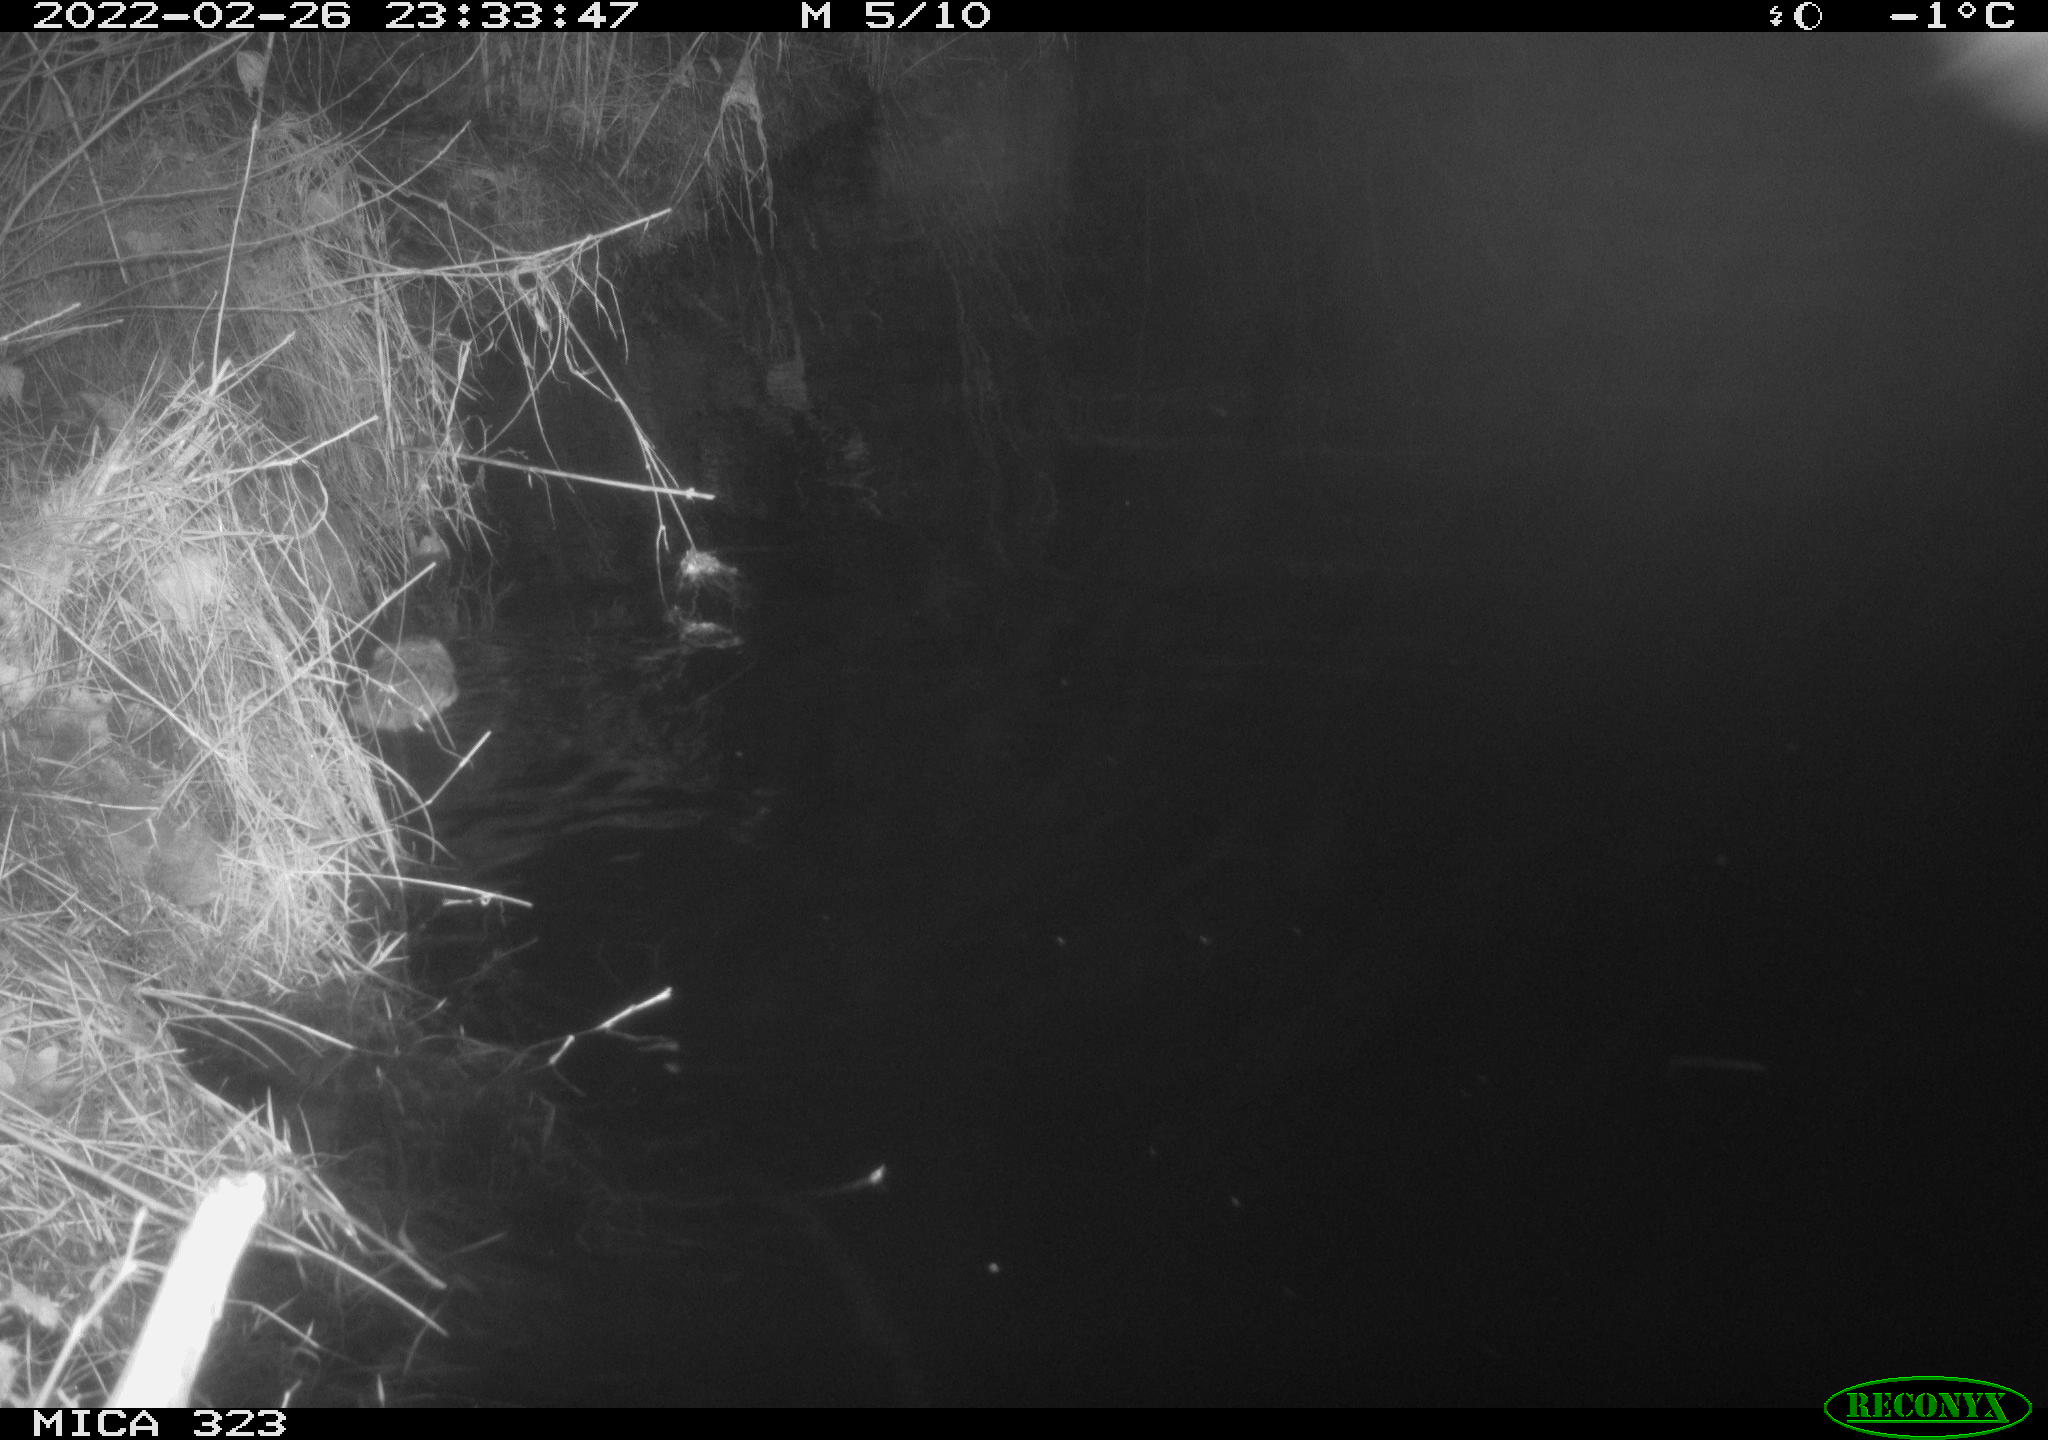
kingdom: Animalia
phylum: Chordata
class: Mammalia
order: Rodentia
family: Cricetidae
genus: Ondatra
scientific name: Ondatra zibethicus
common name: Muskrat
